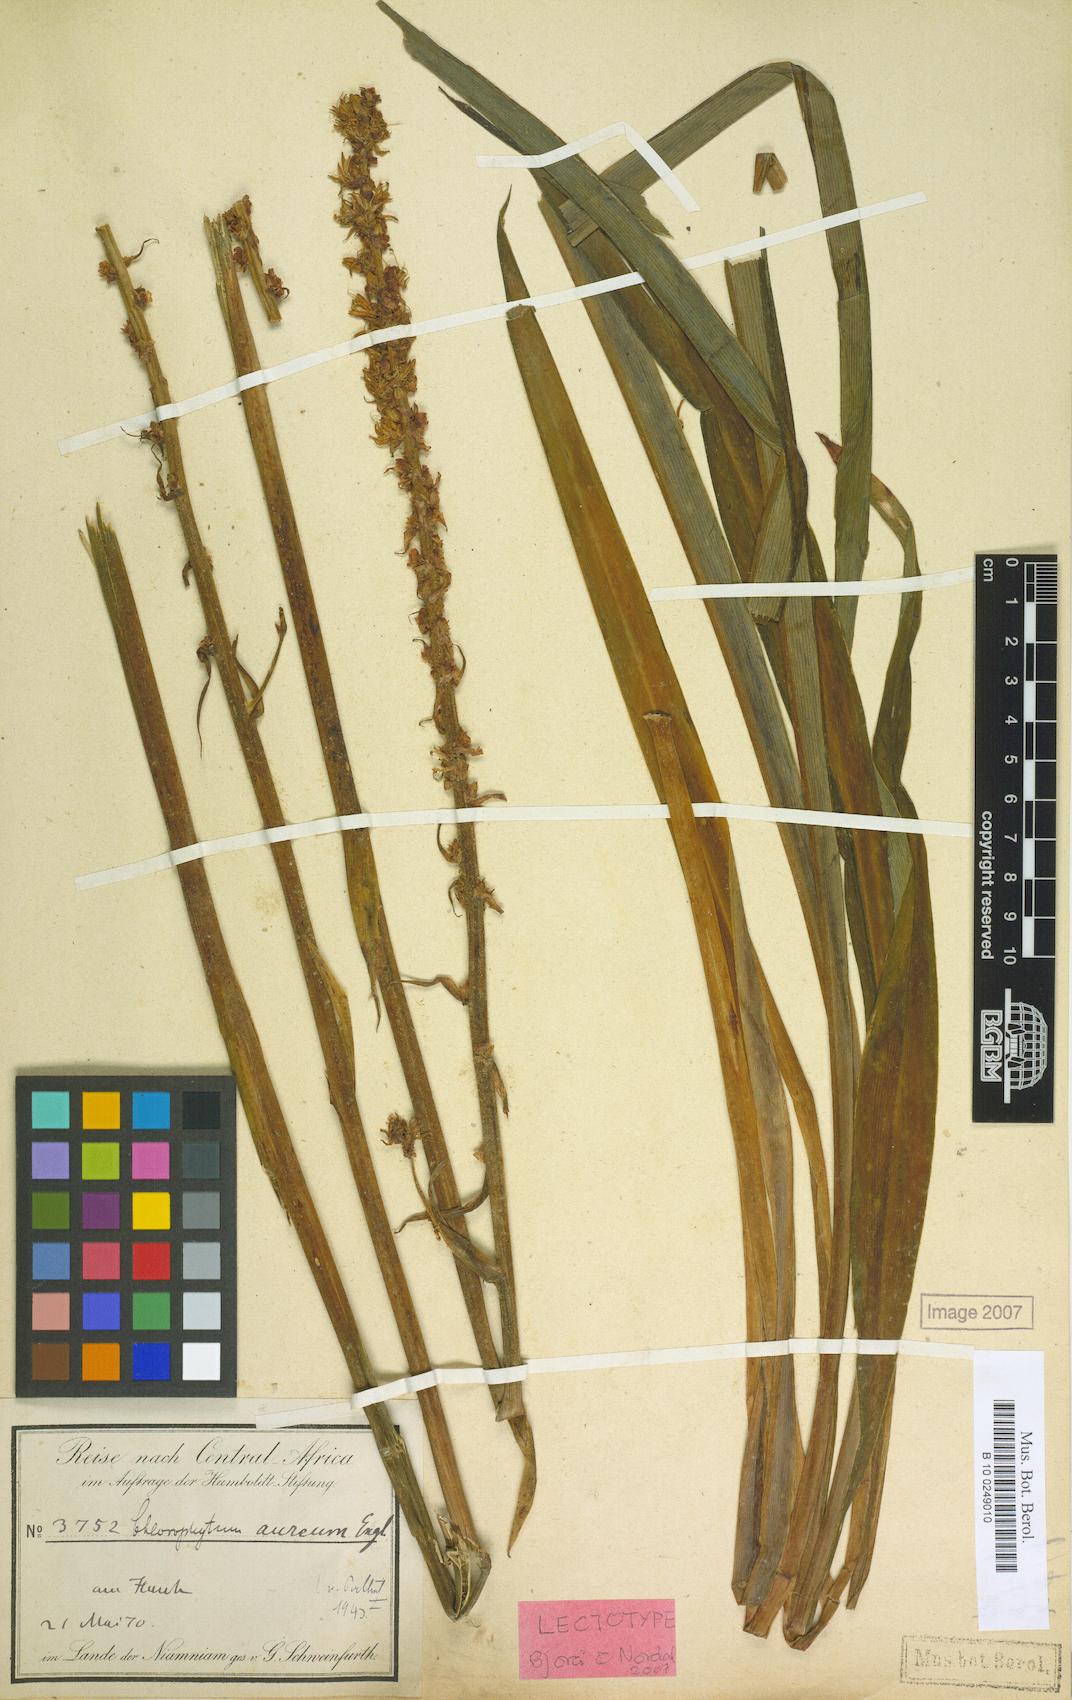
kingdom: Plantae
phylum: Tracheophyta
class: Liliopsida
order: Asparagales
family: Asparagaceae
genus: Chlorophytum
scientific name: Chlorophytum longifolium
